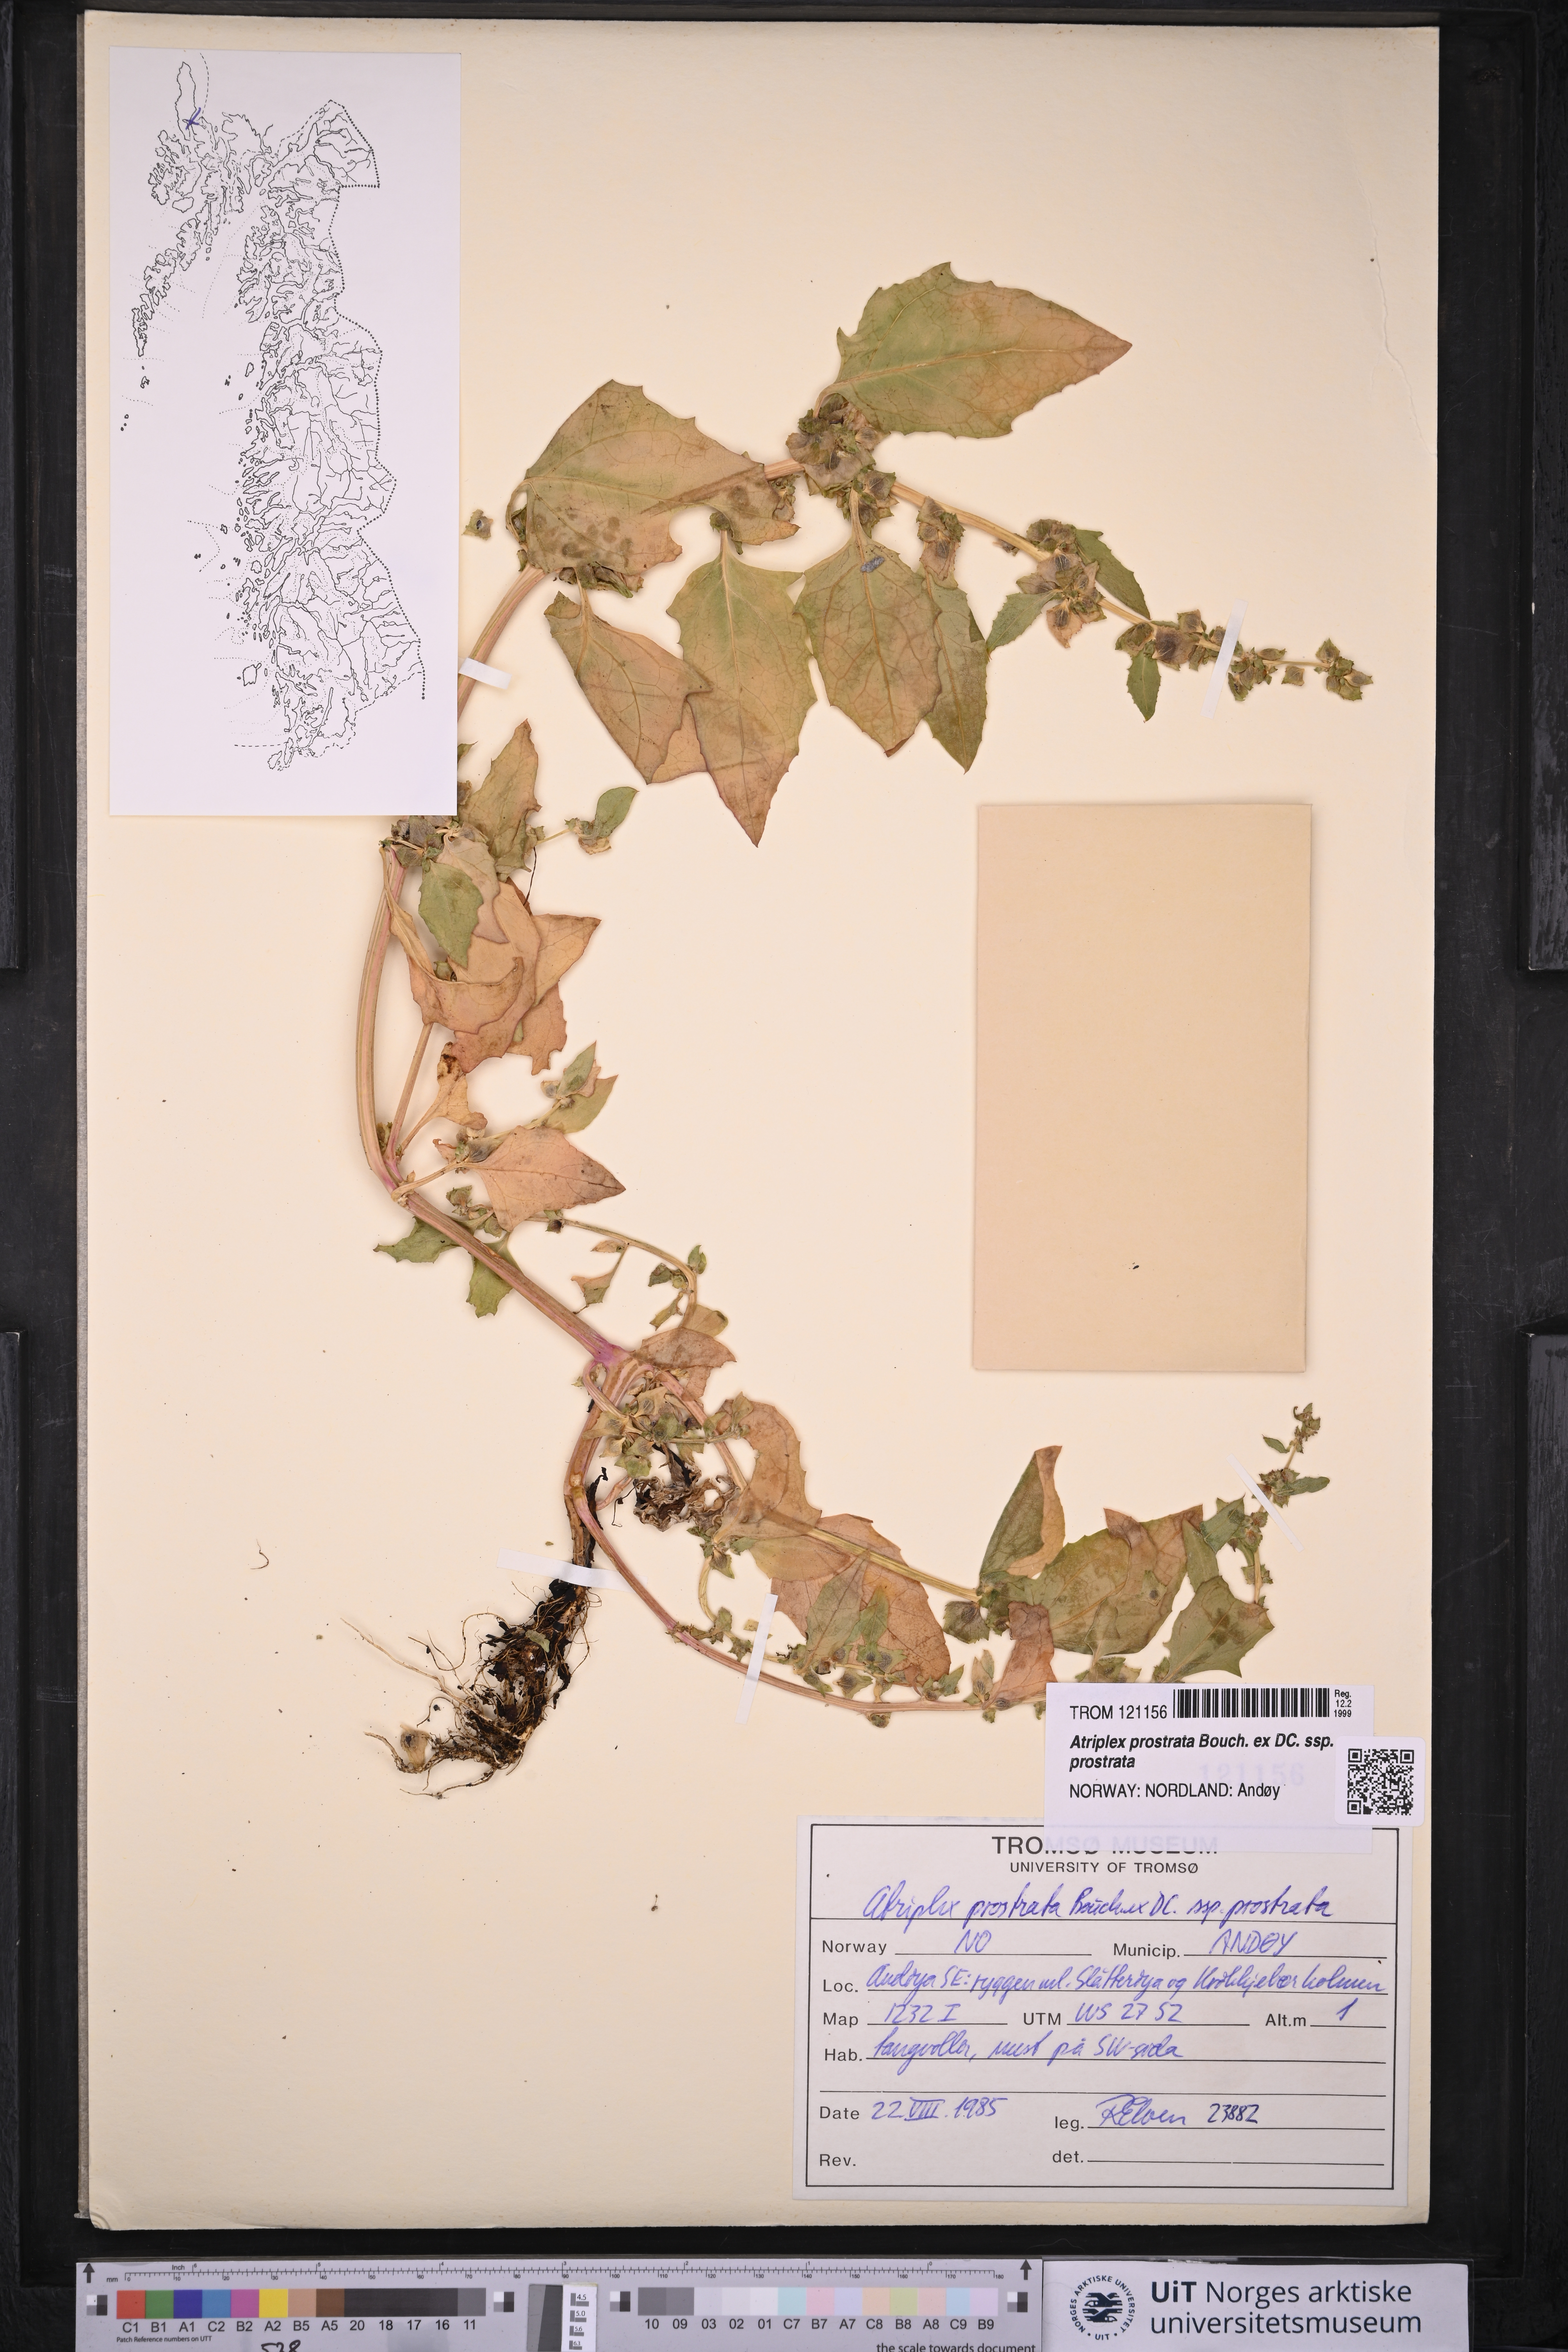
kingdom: Plantae
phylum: Tracheophyta
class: Magnoliopsida
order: Caryophyllales
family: Amaranthaceae
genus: Atriplex
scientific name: Atriplex prostrata
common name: Spear-leaved orache
